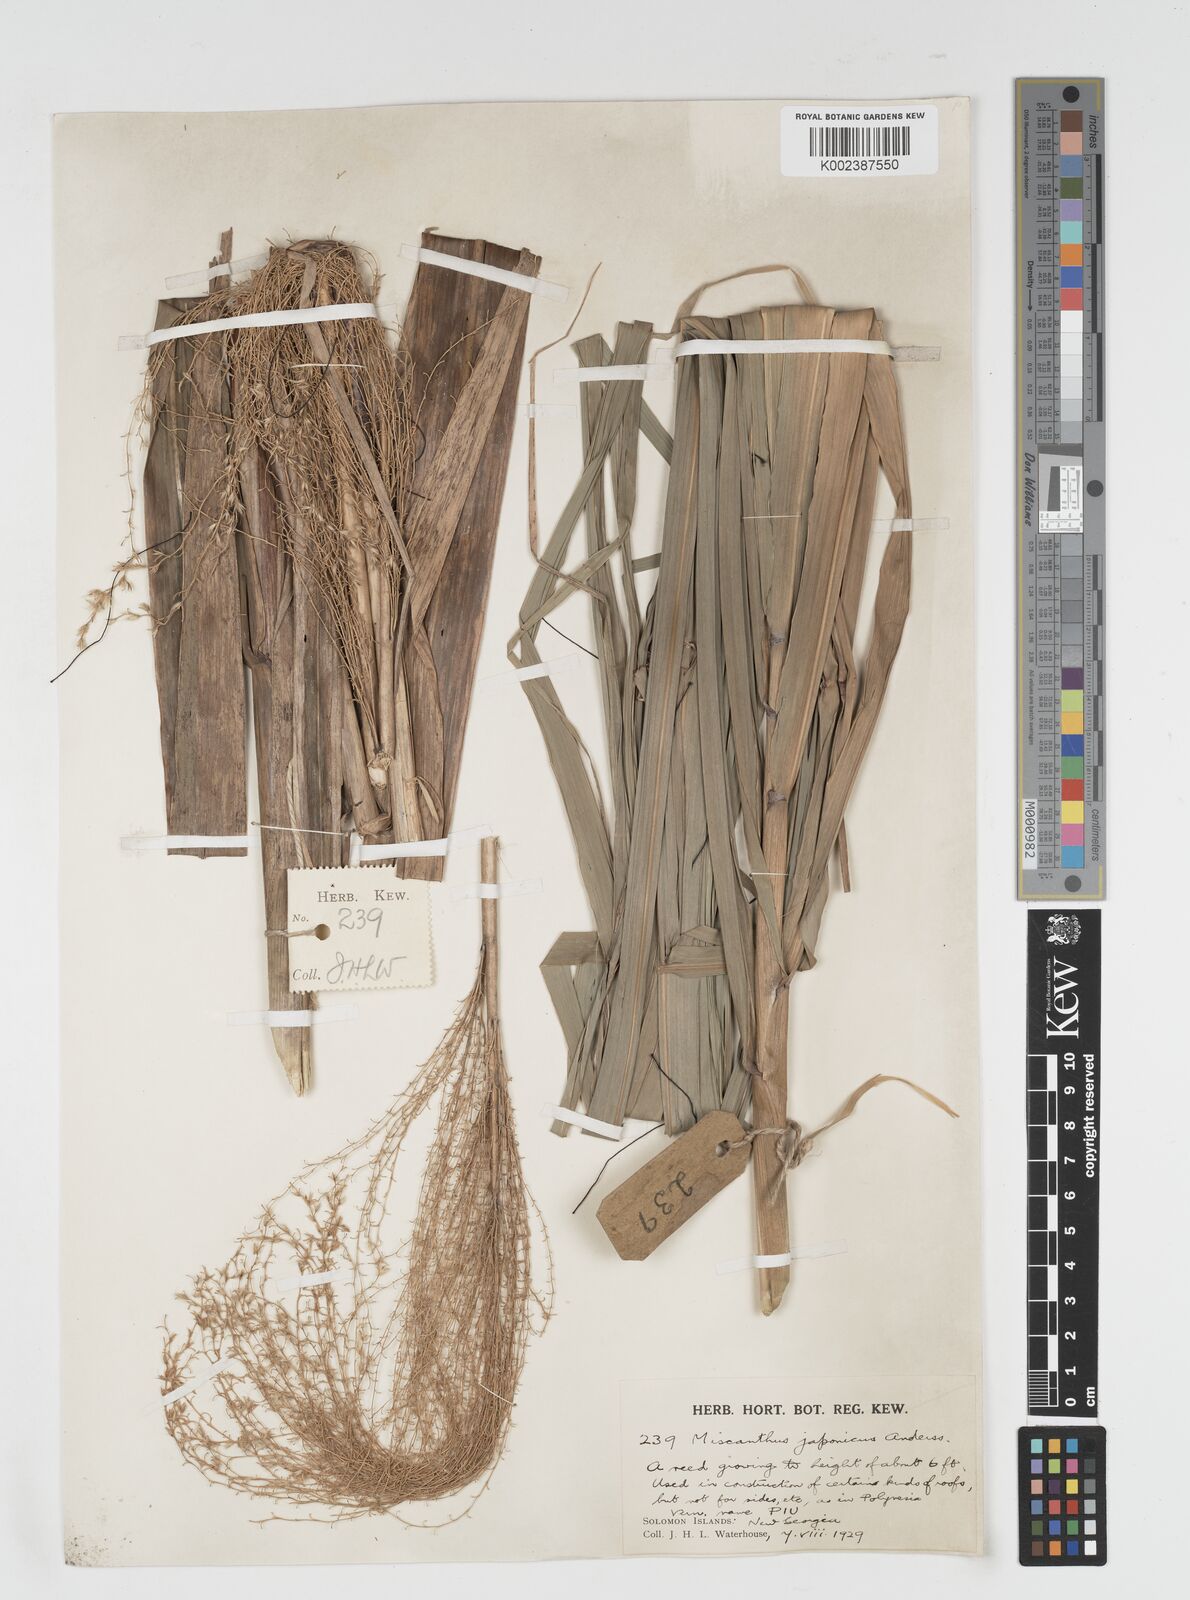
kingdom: Plantae
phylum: Tracheophyta
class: Liliopsida
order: Poales
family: Poaceae
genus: Miscanthus
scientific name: Miscanthus floridulus
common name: Pacific island silvergrass
